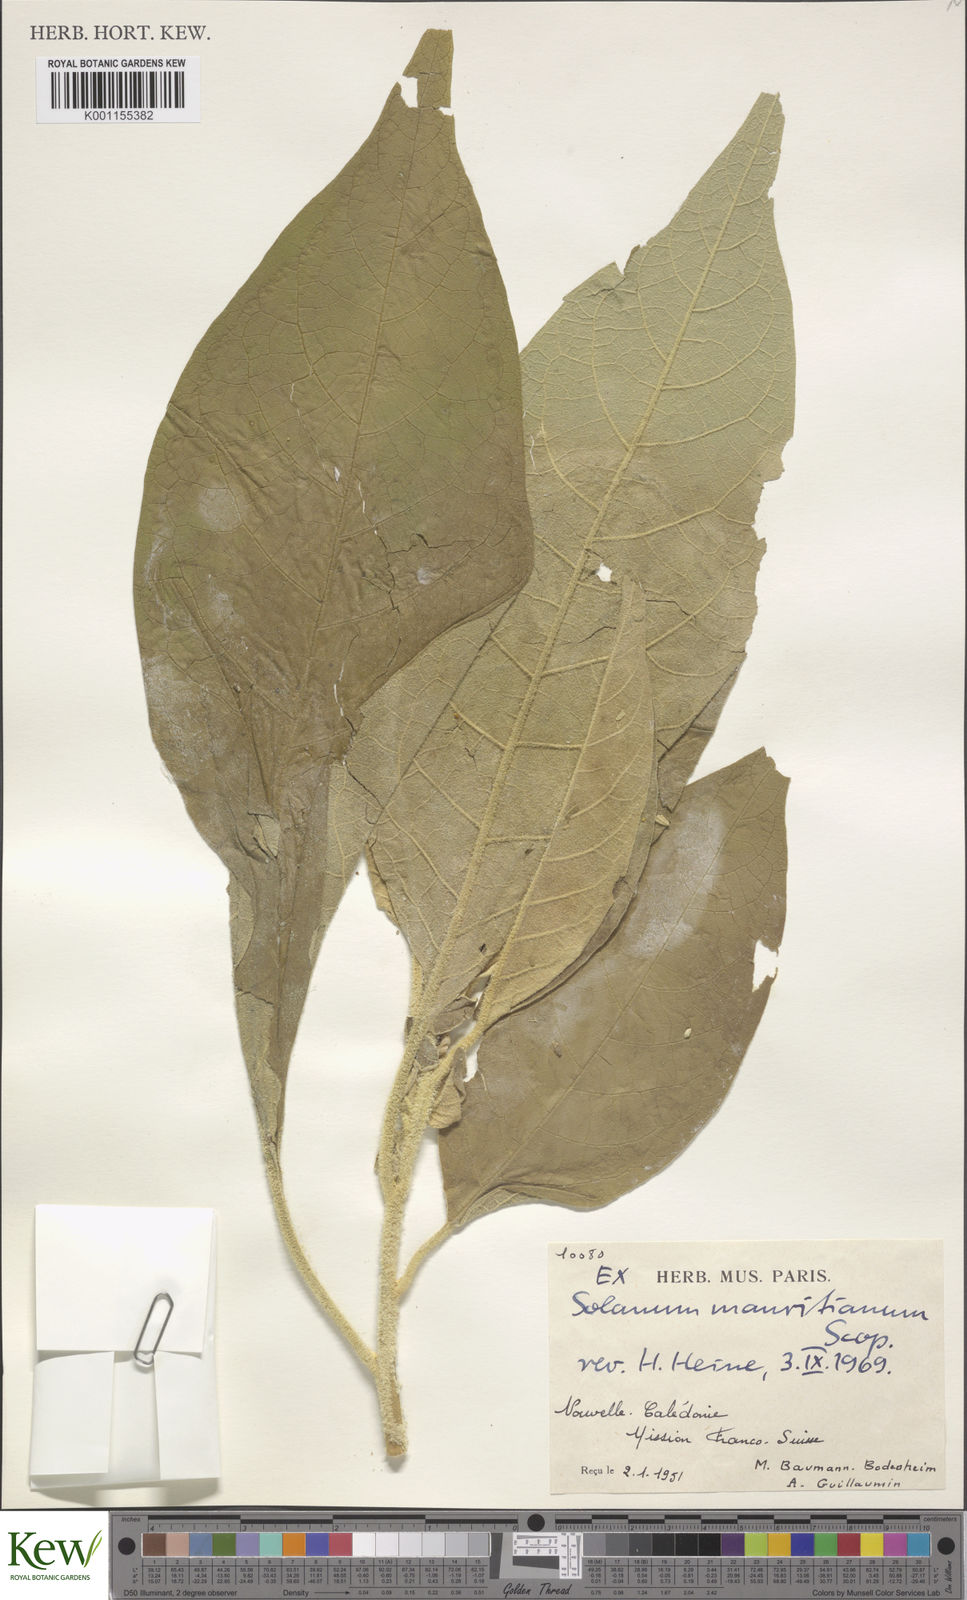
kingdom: Plantae
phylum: Tracheophyta
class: Magnoliopsida
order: Solanales
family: Solanaceae
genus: Solanum
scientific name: Solanum mauritianum
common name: Earleaf nightshade
